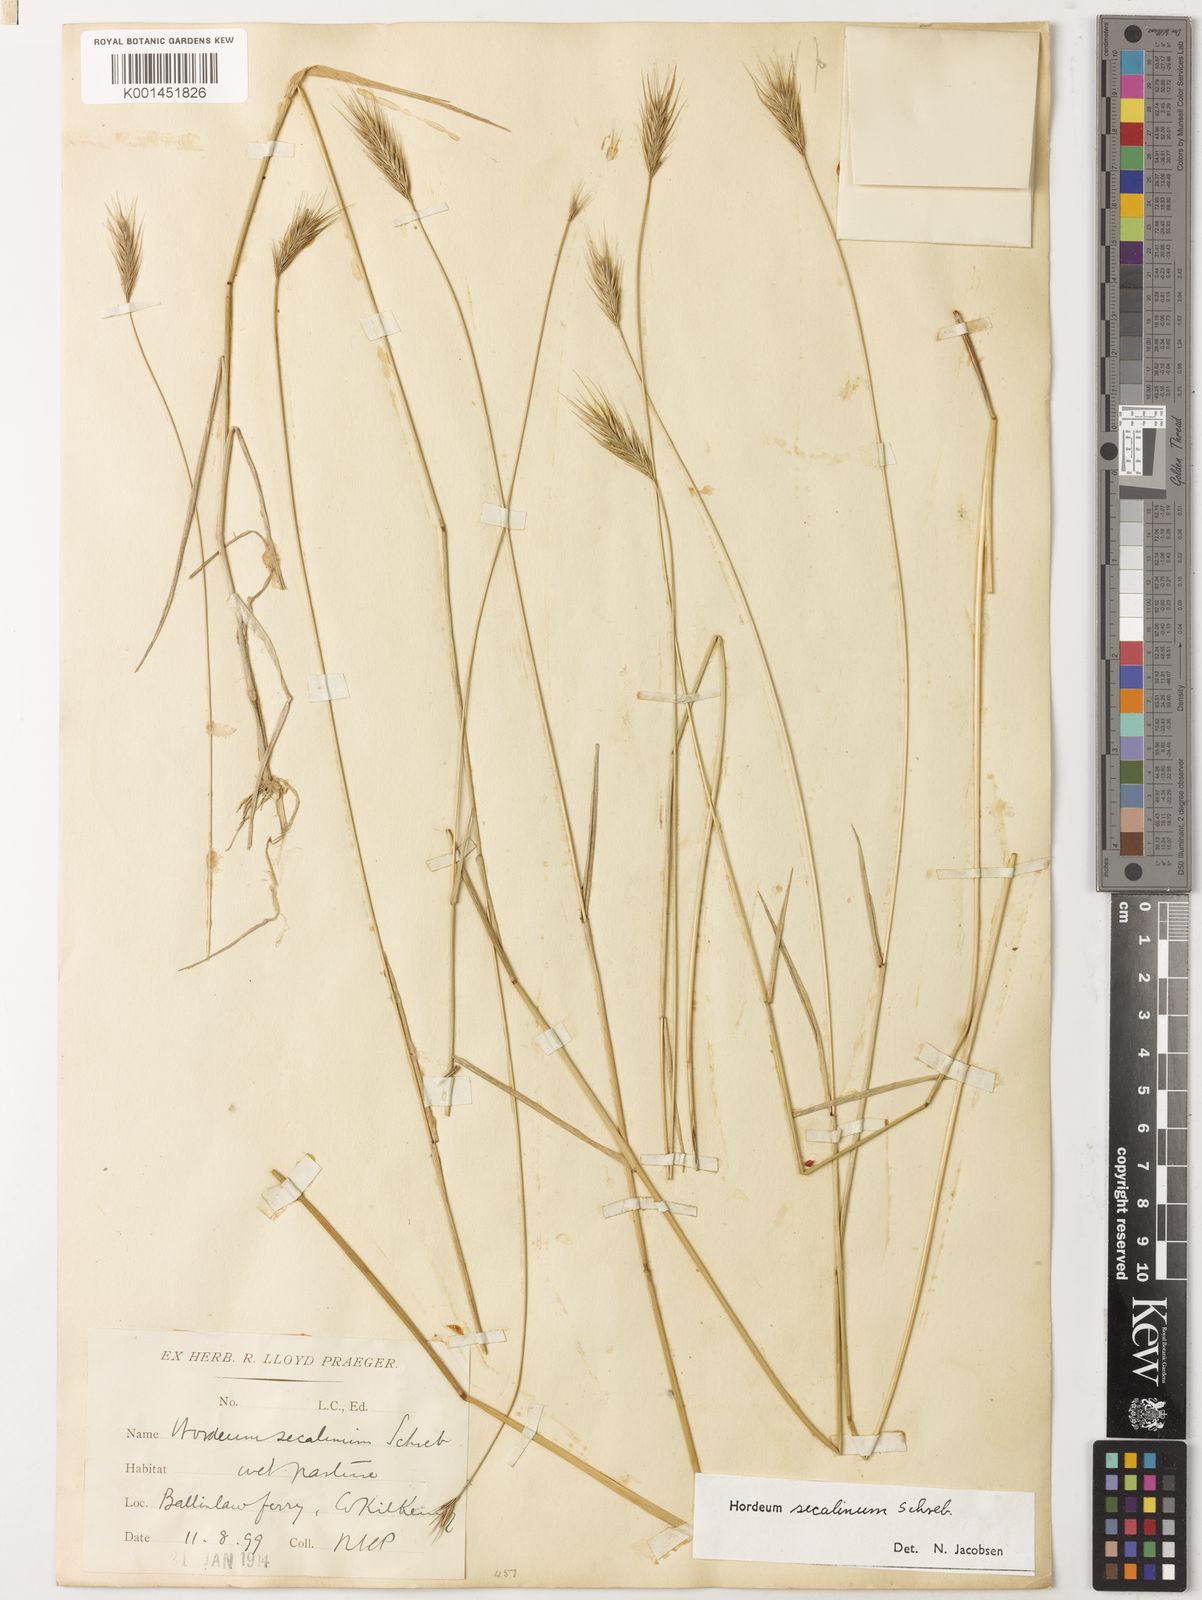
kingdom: Plantae
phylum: Tracheophyta
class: Liliopsida
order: Poales
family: Poaceae
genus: Hordeum
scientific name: Hordeum secalinum
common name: Meadow barley
